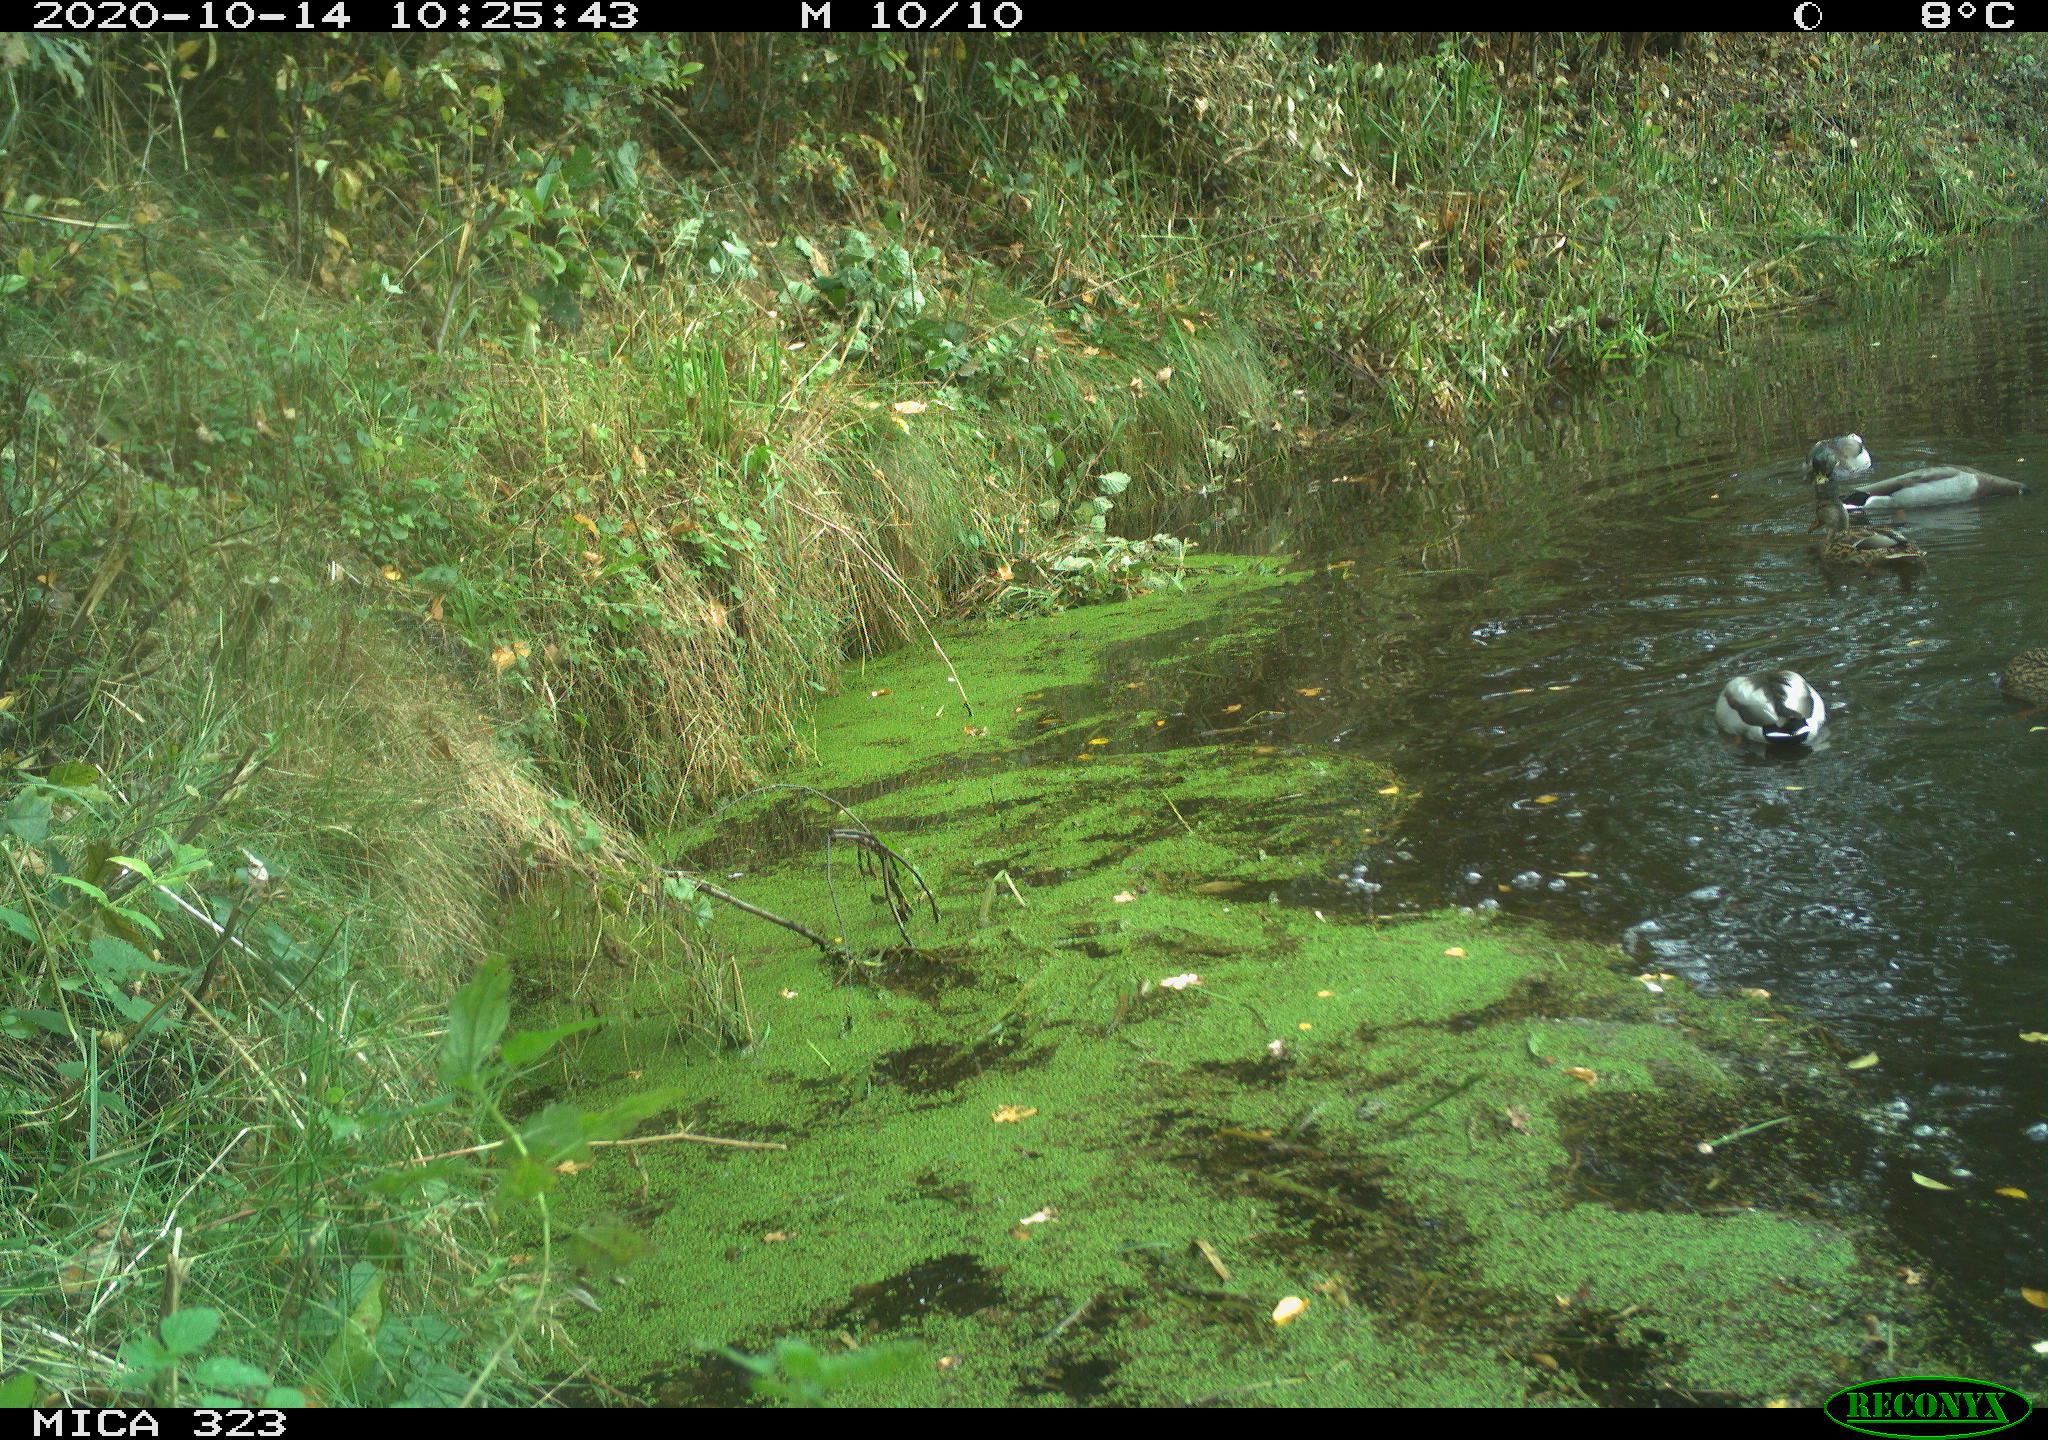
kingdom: Animalia
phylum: Chordata
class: Aves
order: Anseriformes
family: Anatidae
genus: Anas
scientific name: Anas platyrhynchos
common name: Mallard
